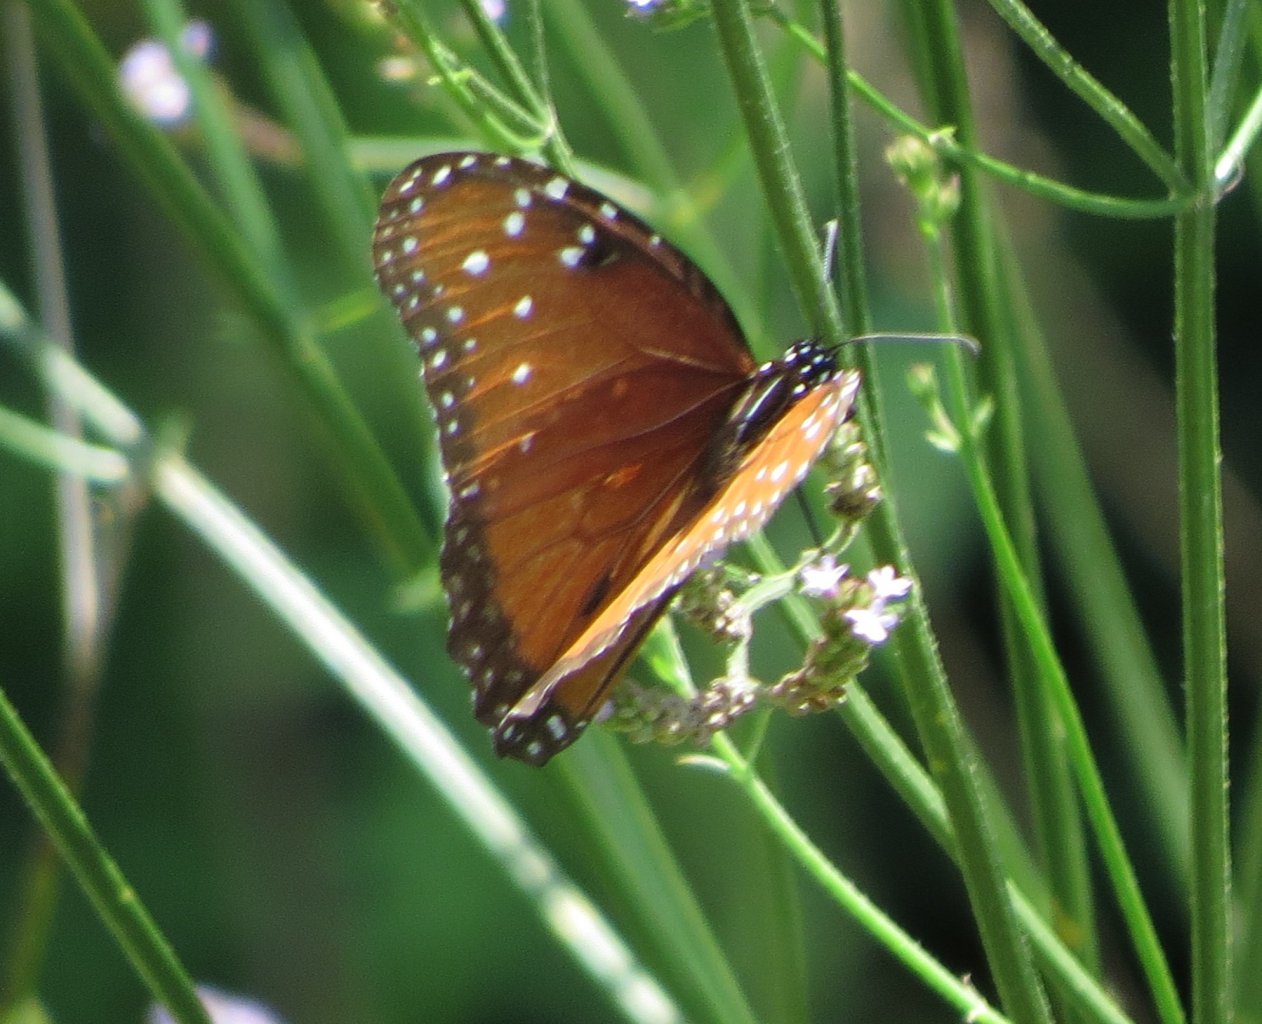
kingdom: Animalia
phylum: Arthropoda
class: Insecta
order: Lepidoptera
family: Nymphalidae
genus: Danaus
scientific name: Danaus gilippus
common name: Queen
